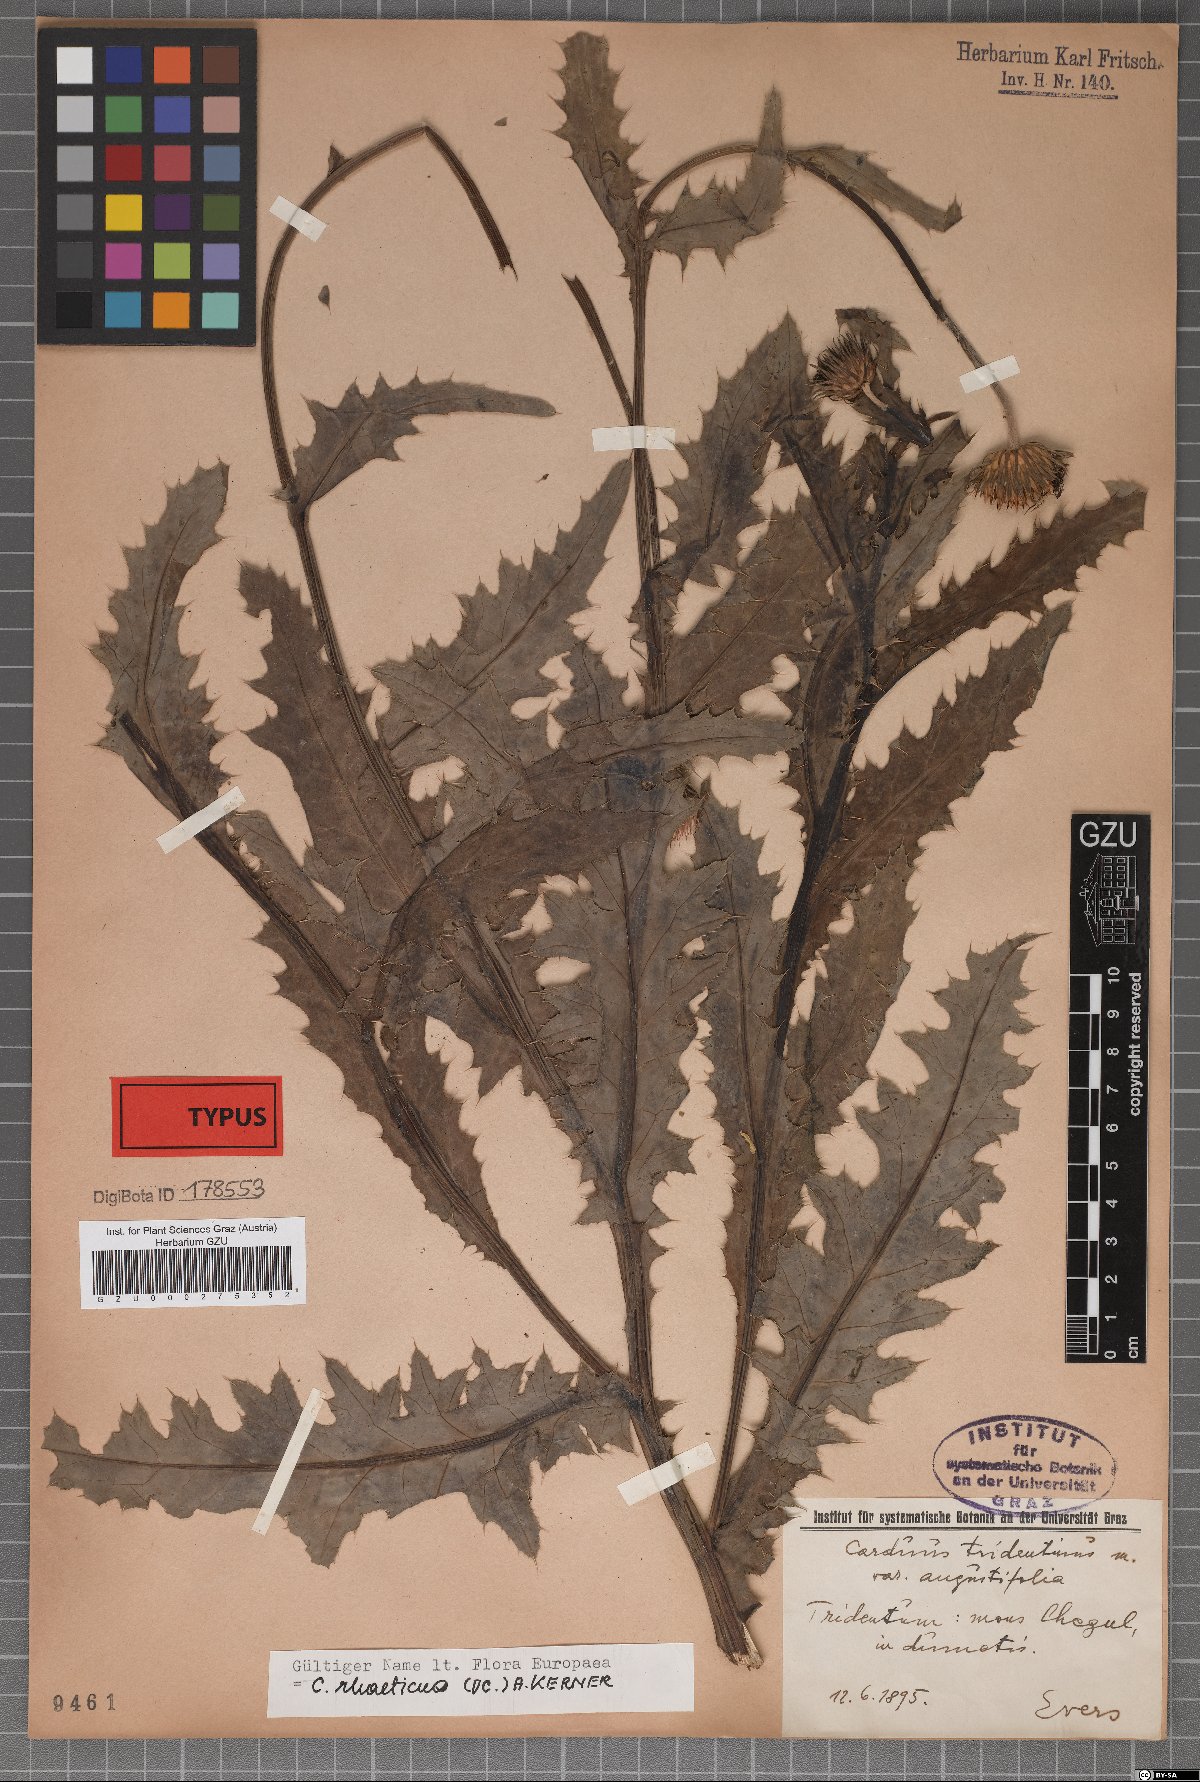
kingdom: Plantae
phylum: Tracheophyta
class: Magnoliopsida
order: Asterales
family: Asteraceae
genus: Carduus
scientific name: Carduus defloratus
